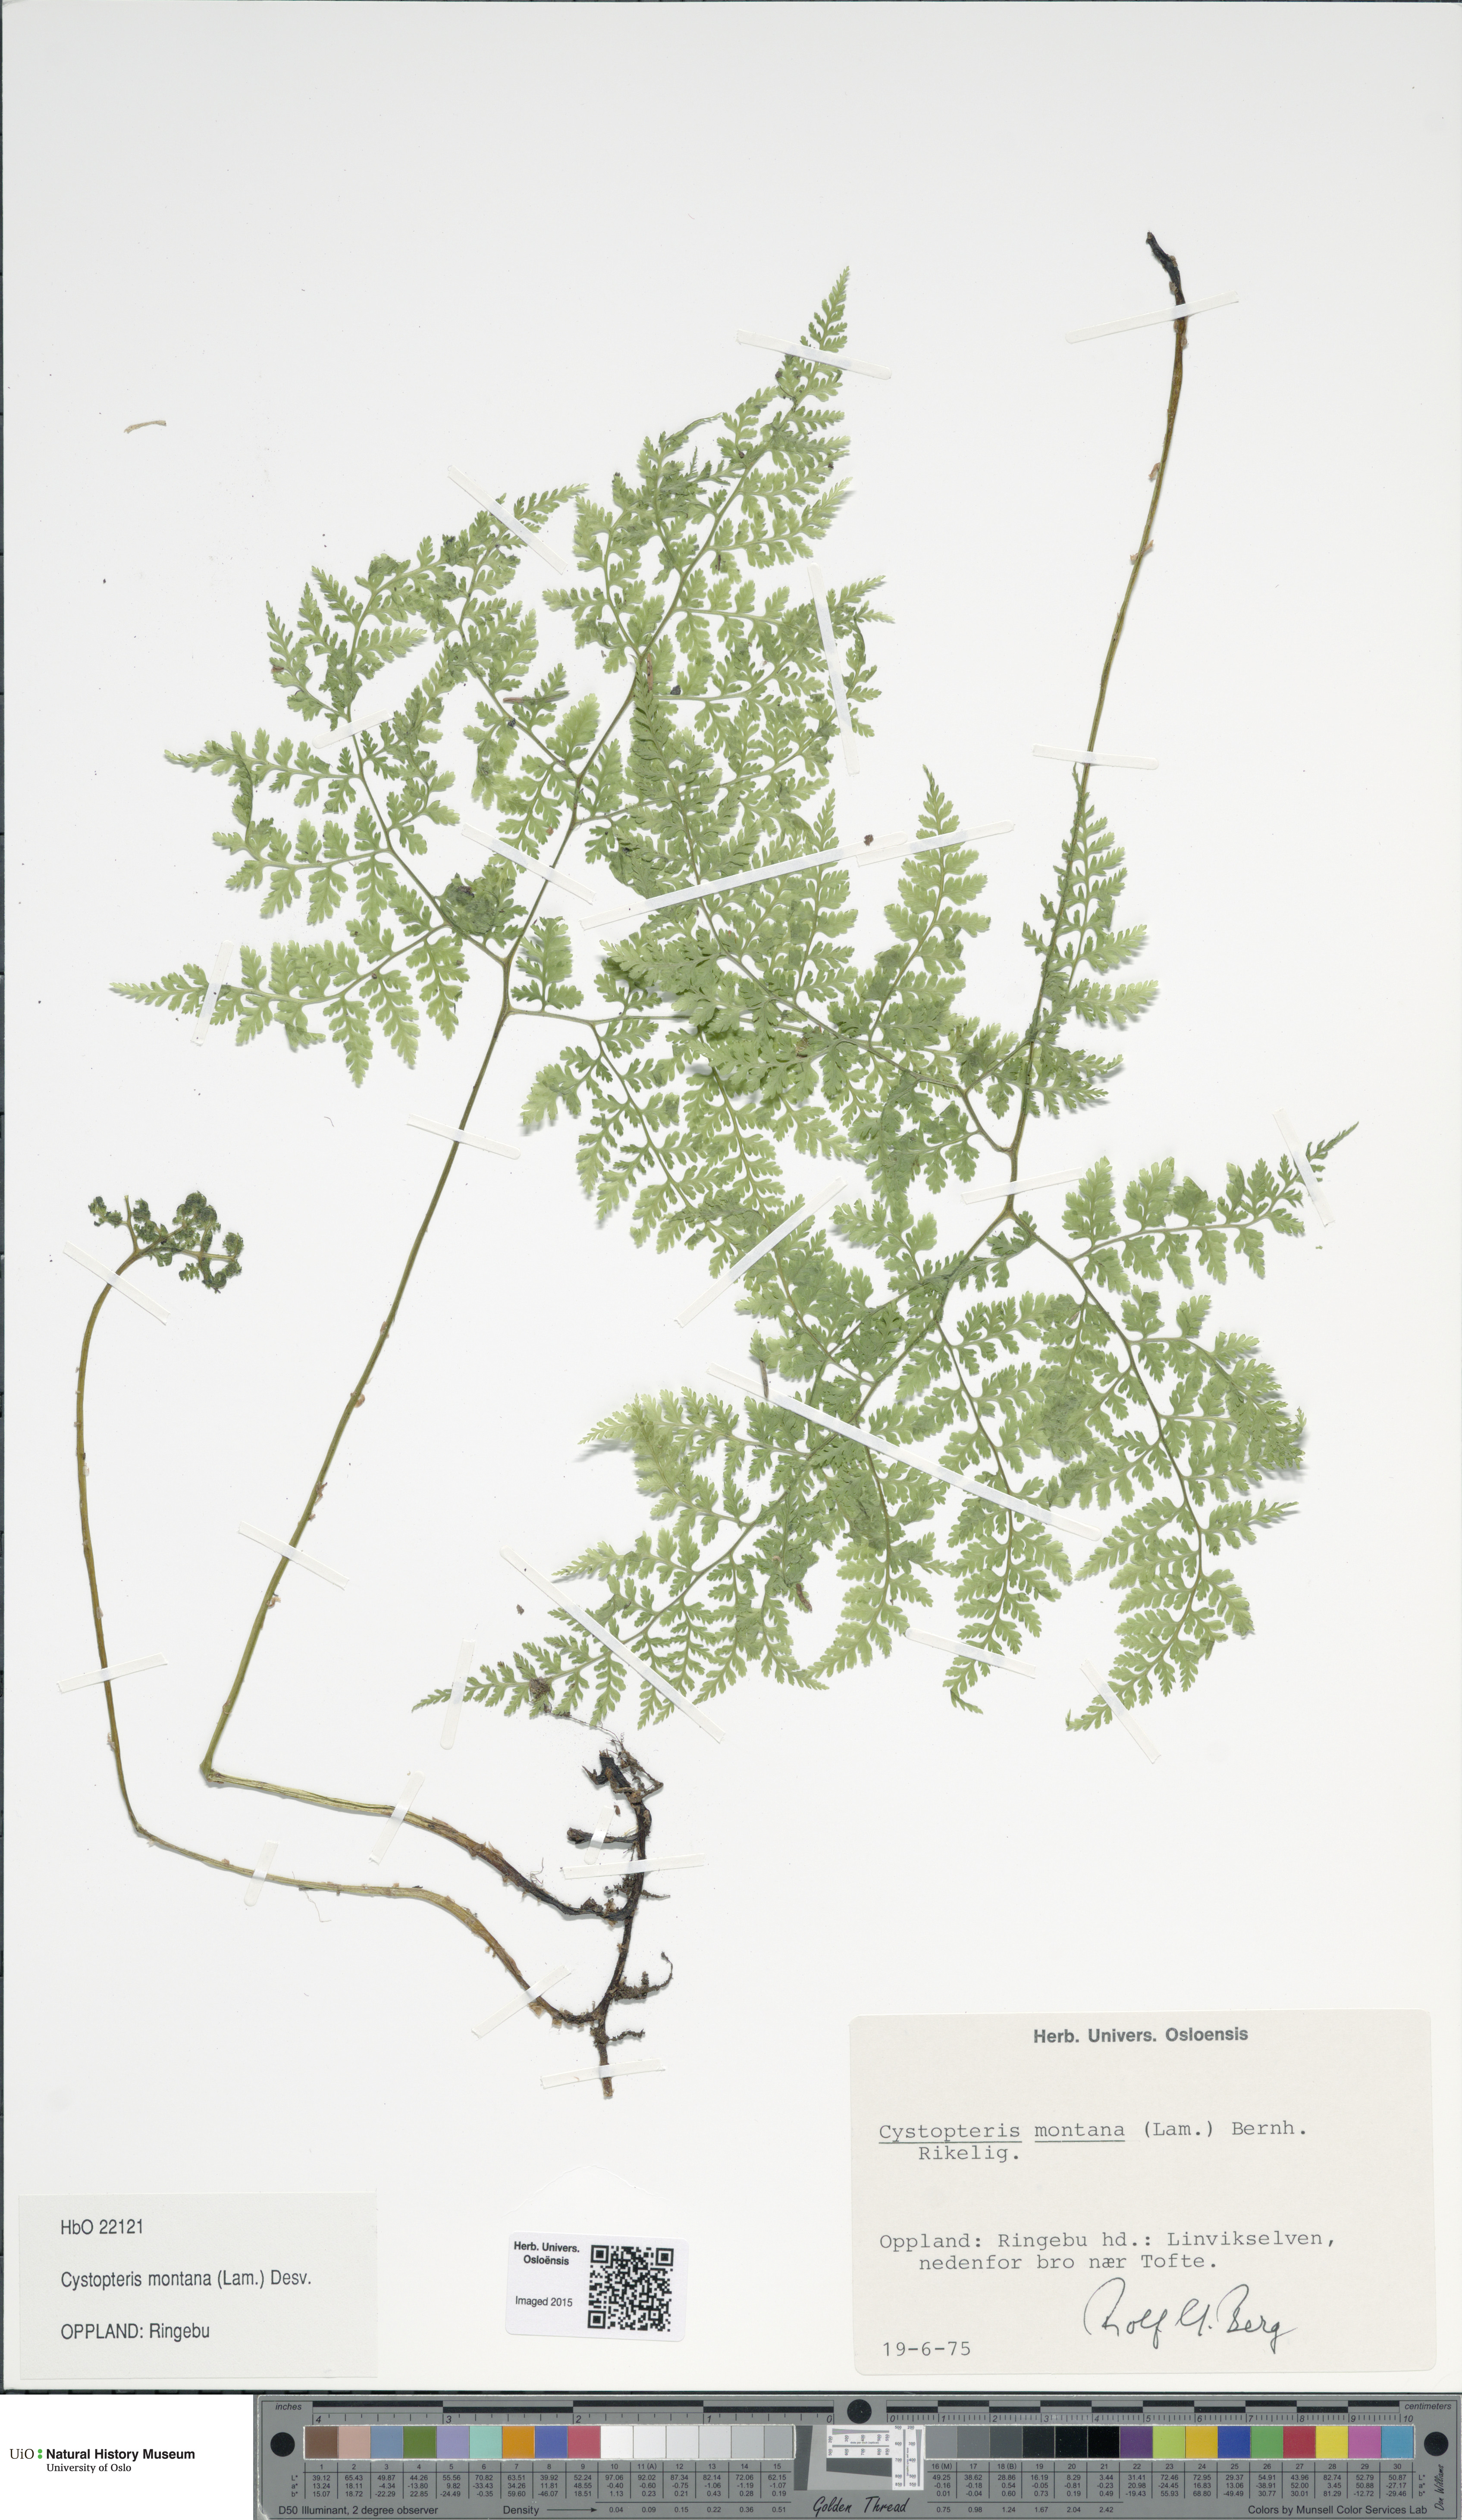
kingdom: Plantae
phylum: Tracheophyta
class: Polypodiopsida
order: Polypodiales
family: Cystopteridaceae
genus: Cystopteris
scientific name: Cystopteris montana
